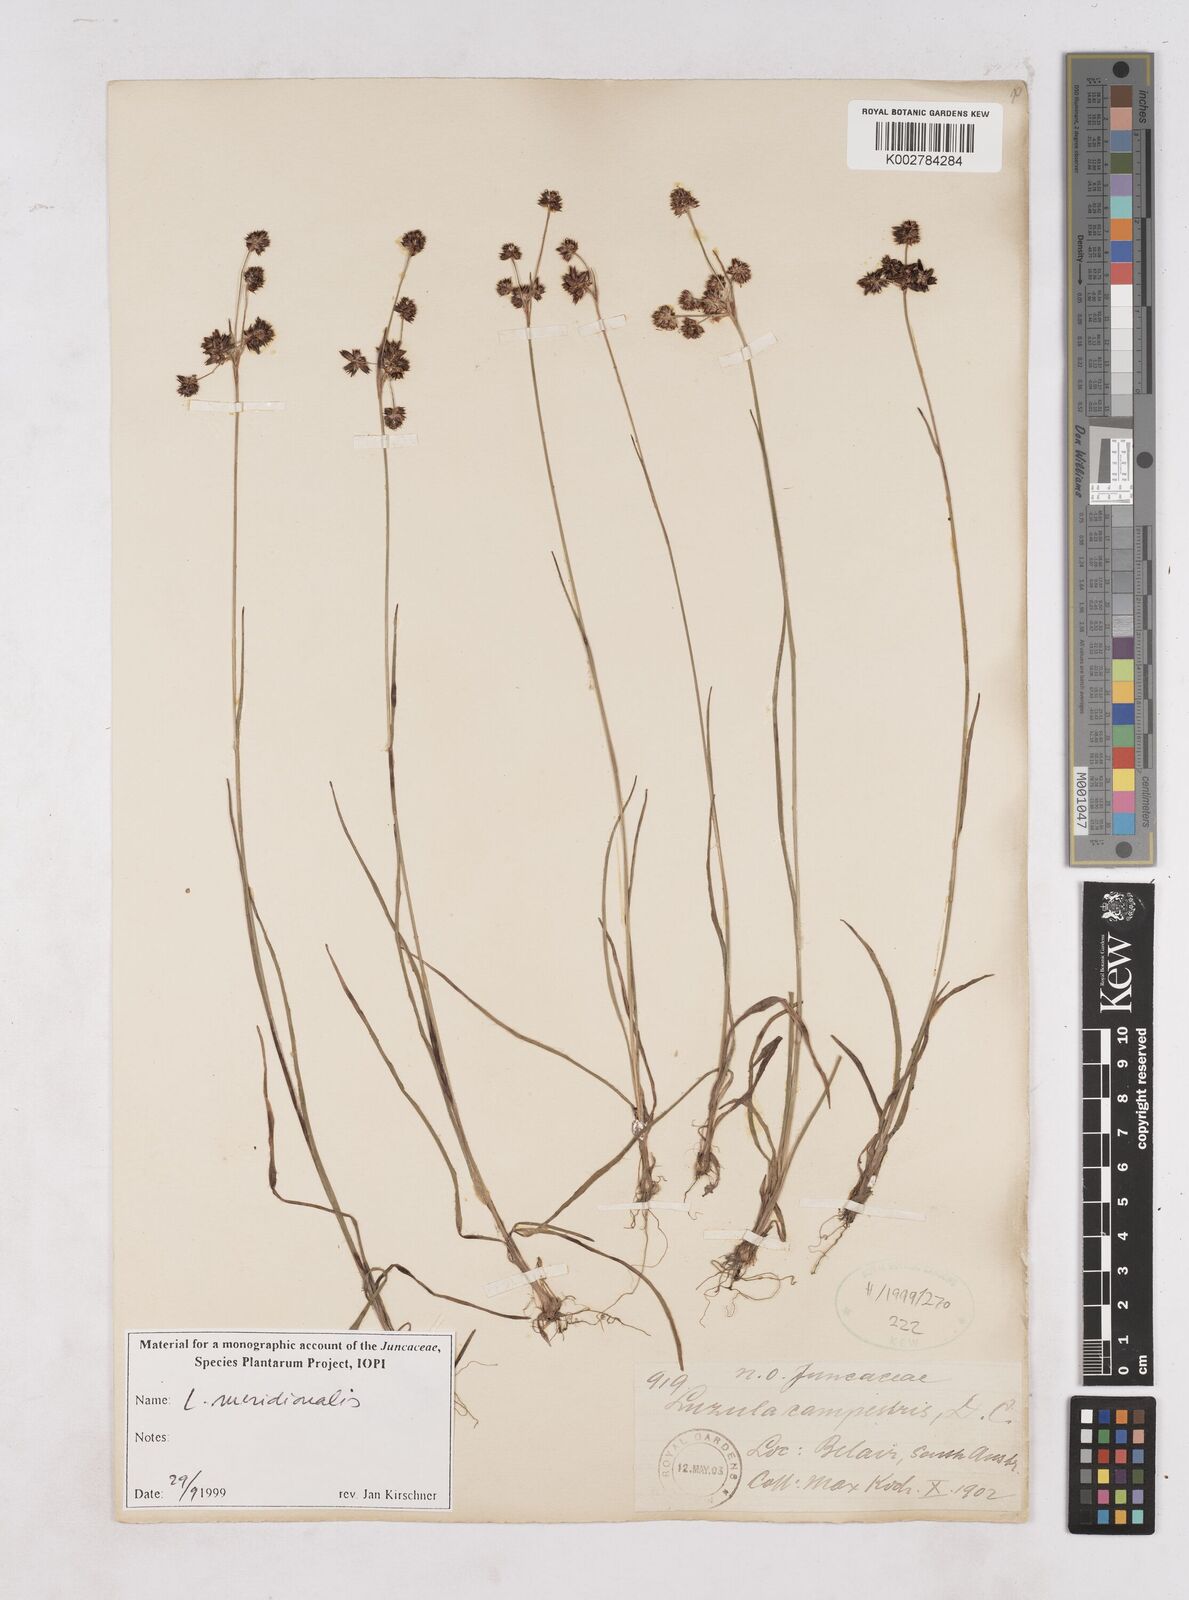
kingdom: Plantae
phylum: Tracheophyta
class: Liliopsida
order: Poales
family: Juncaceae
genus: Luzula
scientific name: Luzula meridionalis
